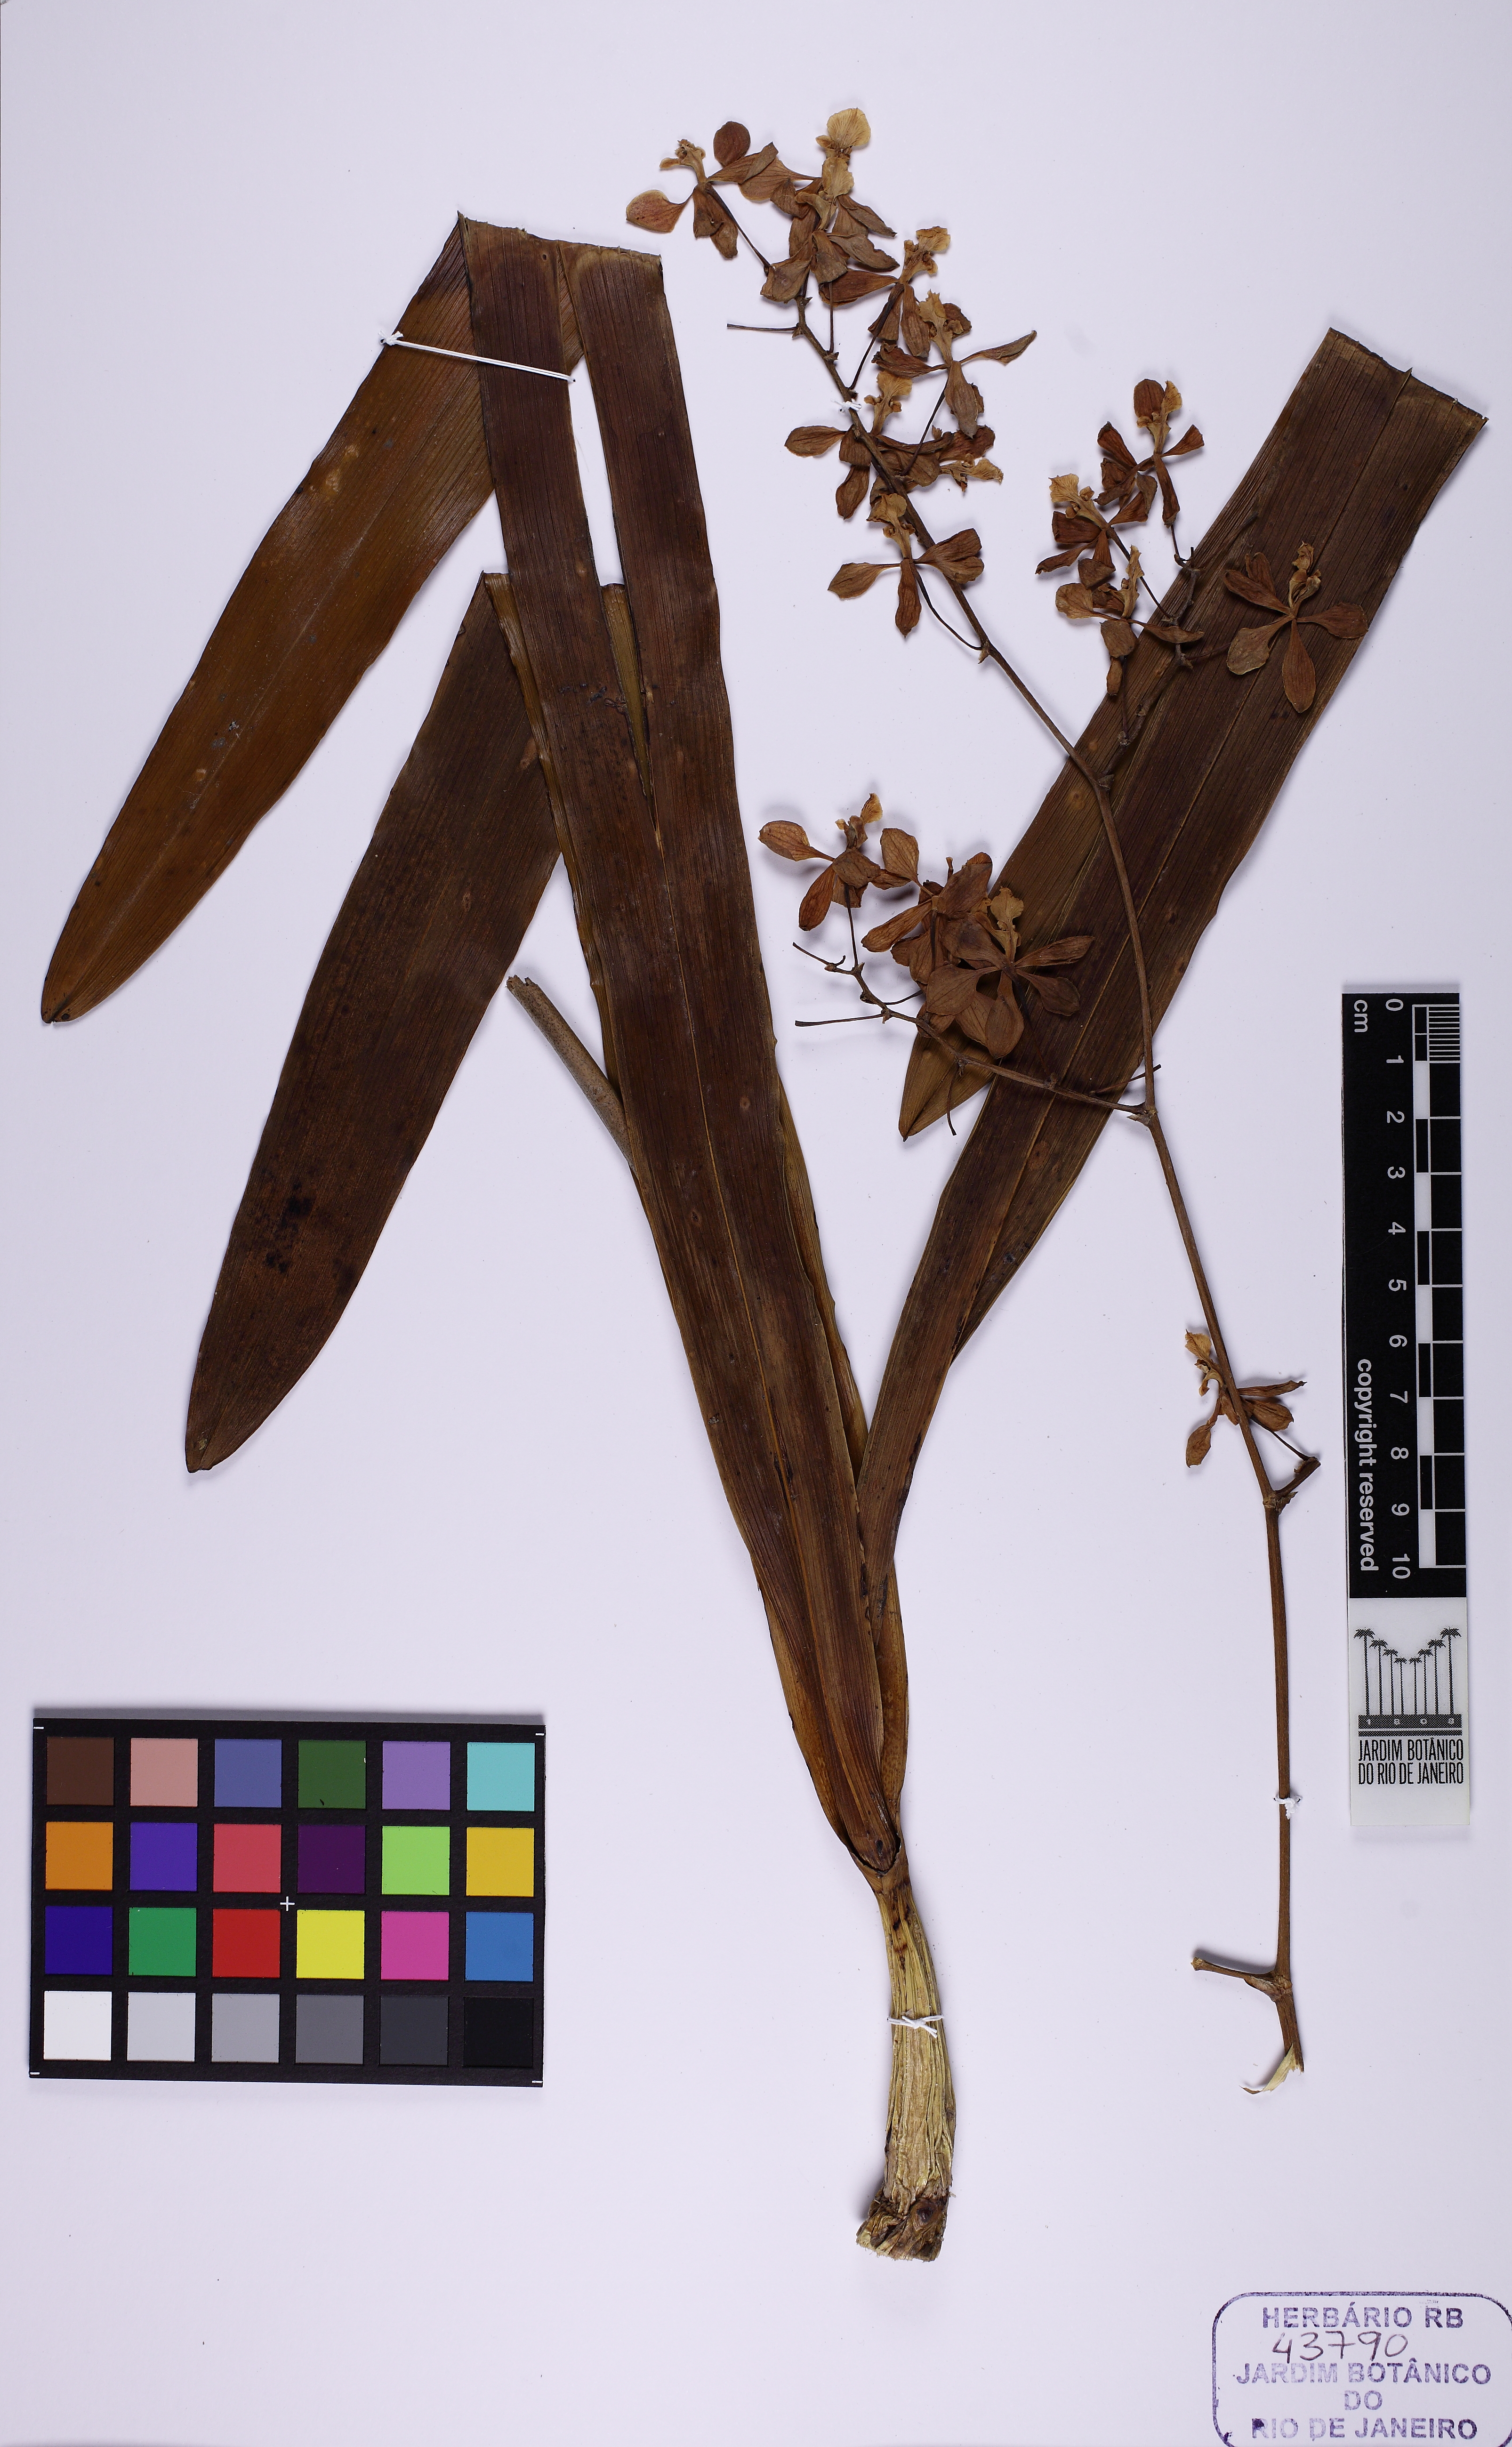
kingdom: Plantae
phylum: Tracheophyta
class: Liliopsida
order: Asparagales
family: Orchidaceae
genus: Encyclia
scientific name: Encyclia oncidioides
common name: Heavyfruit butterfly orchid
